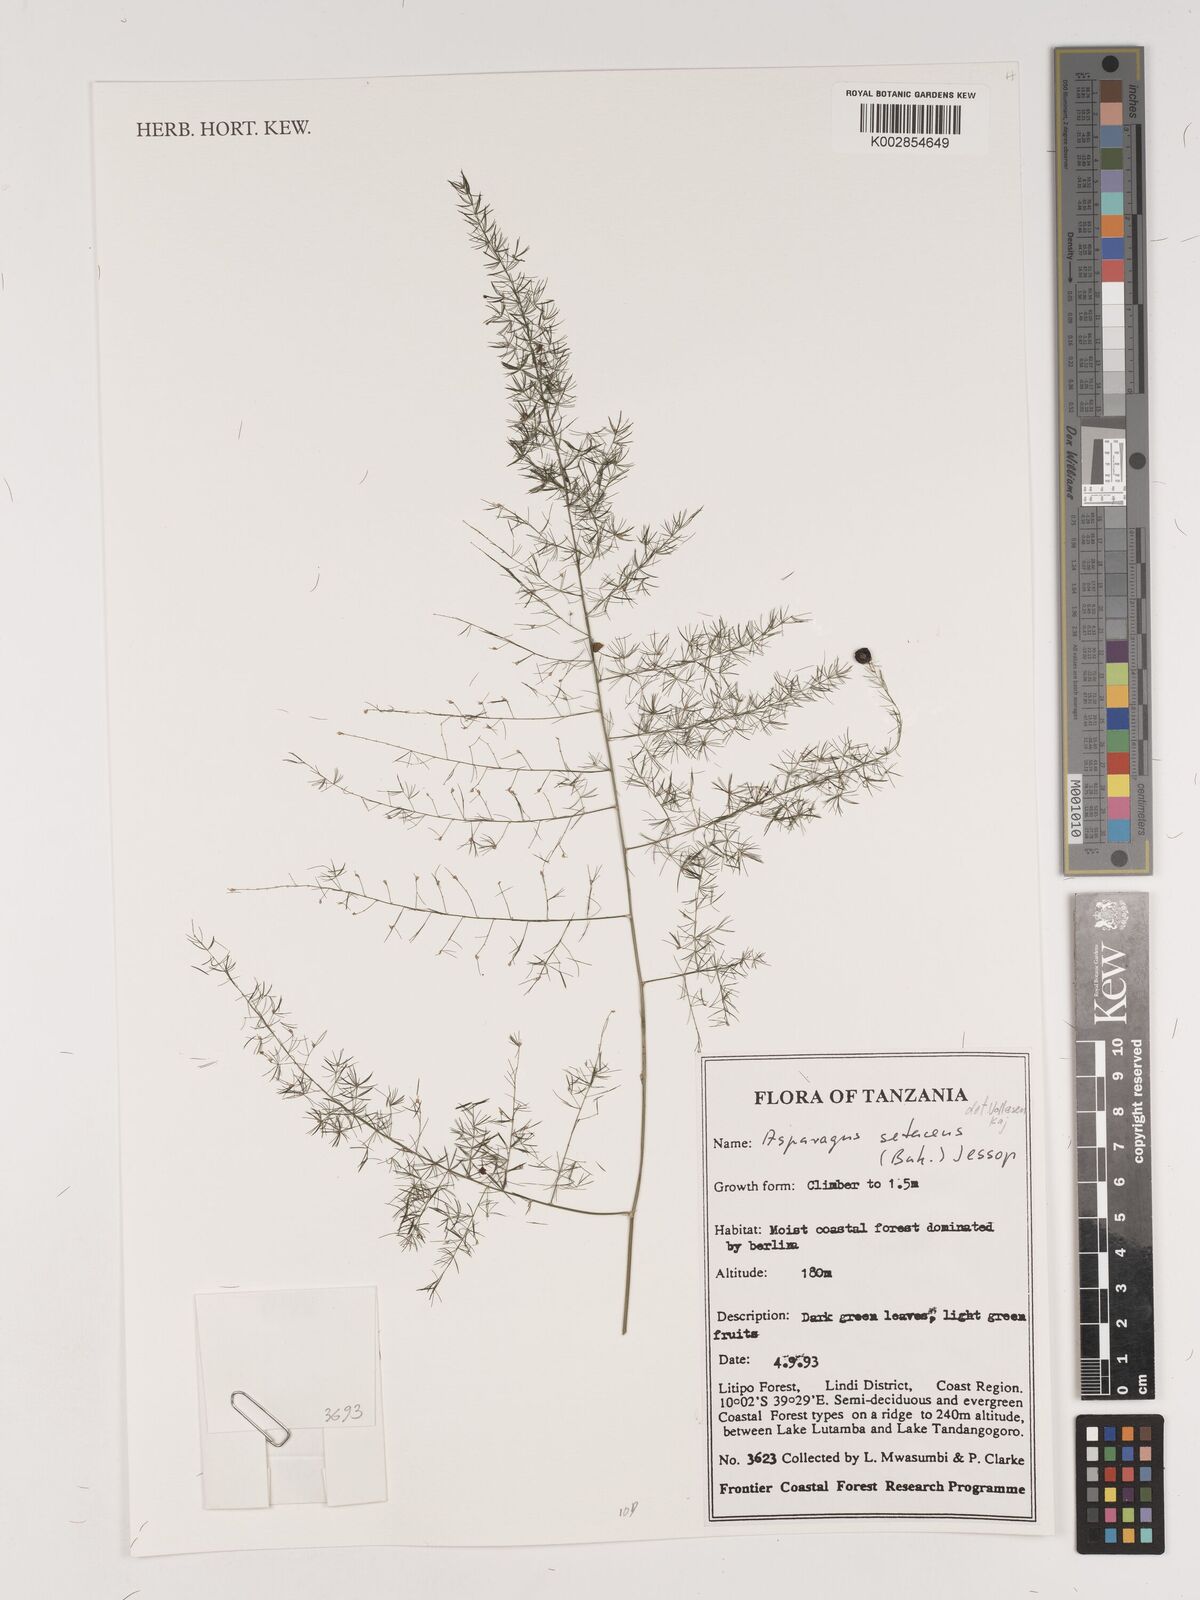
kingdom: Plantae
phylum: Tracheophyta
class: Liliopsida
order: Asparagales
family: Asparagaceae
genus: Asparagus
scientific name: Asparagus setaceus
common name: Common asparagus fern
